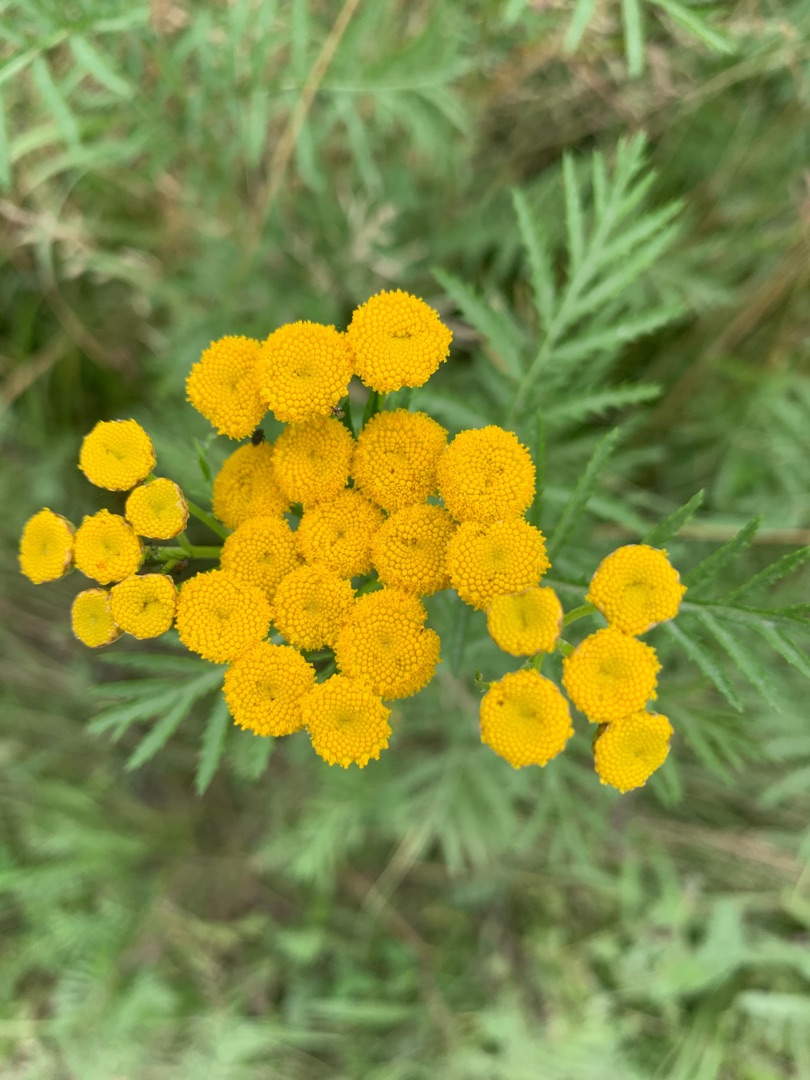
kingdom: Plantae
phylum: Tracheophyta
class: Magnoliopsida
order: Asterales
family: Asteraceae
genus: Tanacetum
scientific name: Tanacetum vulgare
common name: Rejnfan
